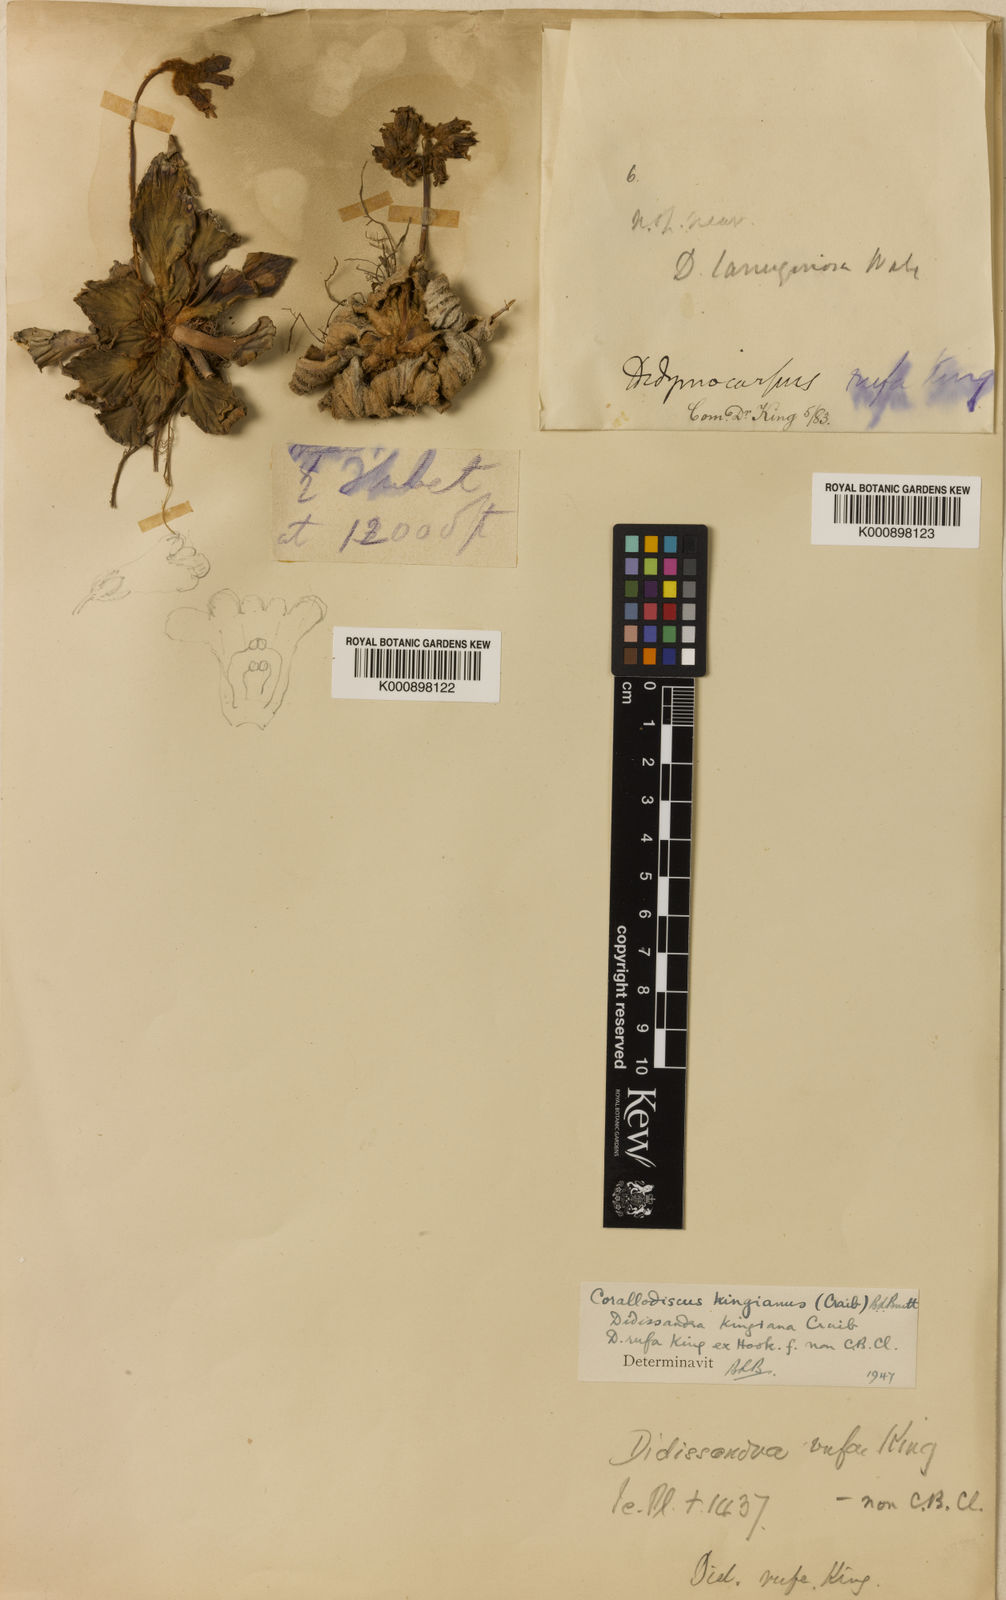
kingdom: Plantae
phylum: Tracheophyta
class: Magnoliopsida
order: Lamiales
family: Gesneriaceae
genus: Corallodiscus
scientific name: Corallodiscus lanuginosus
